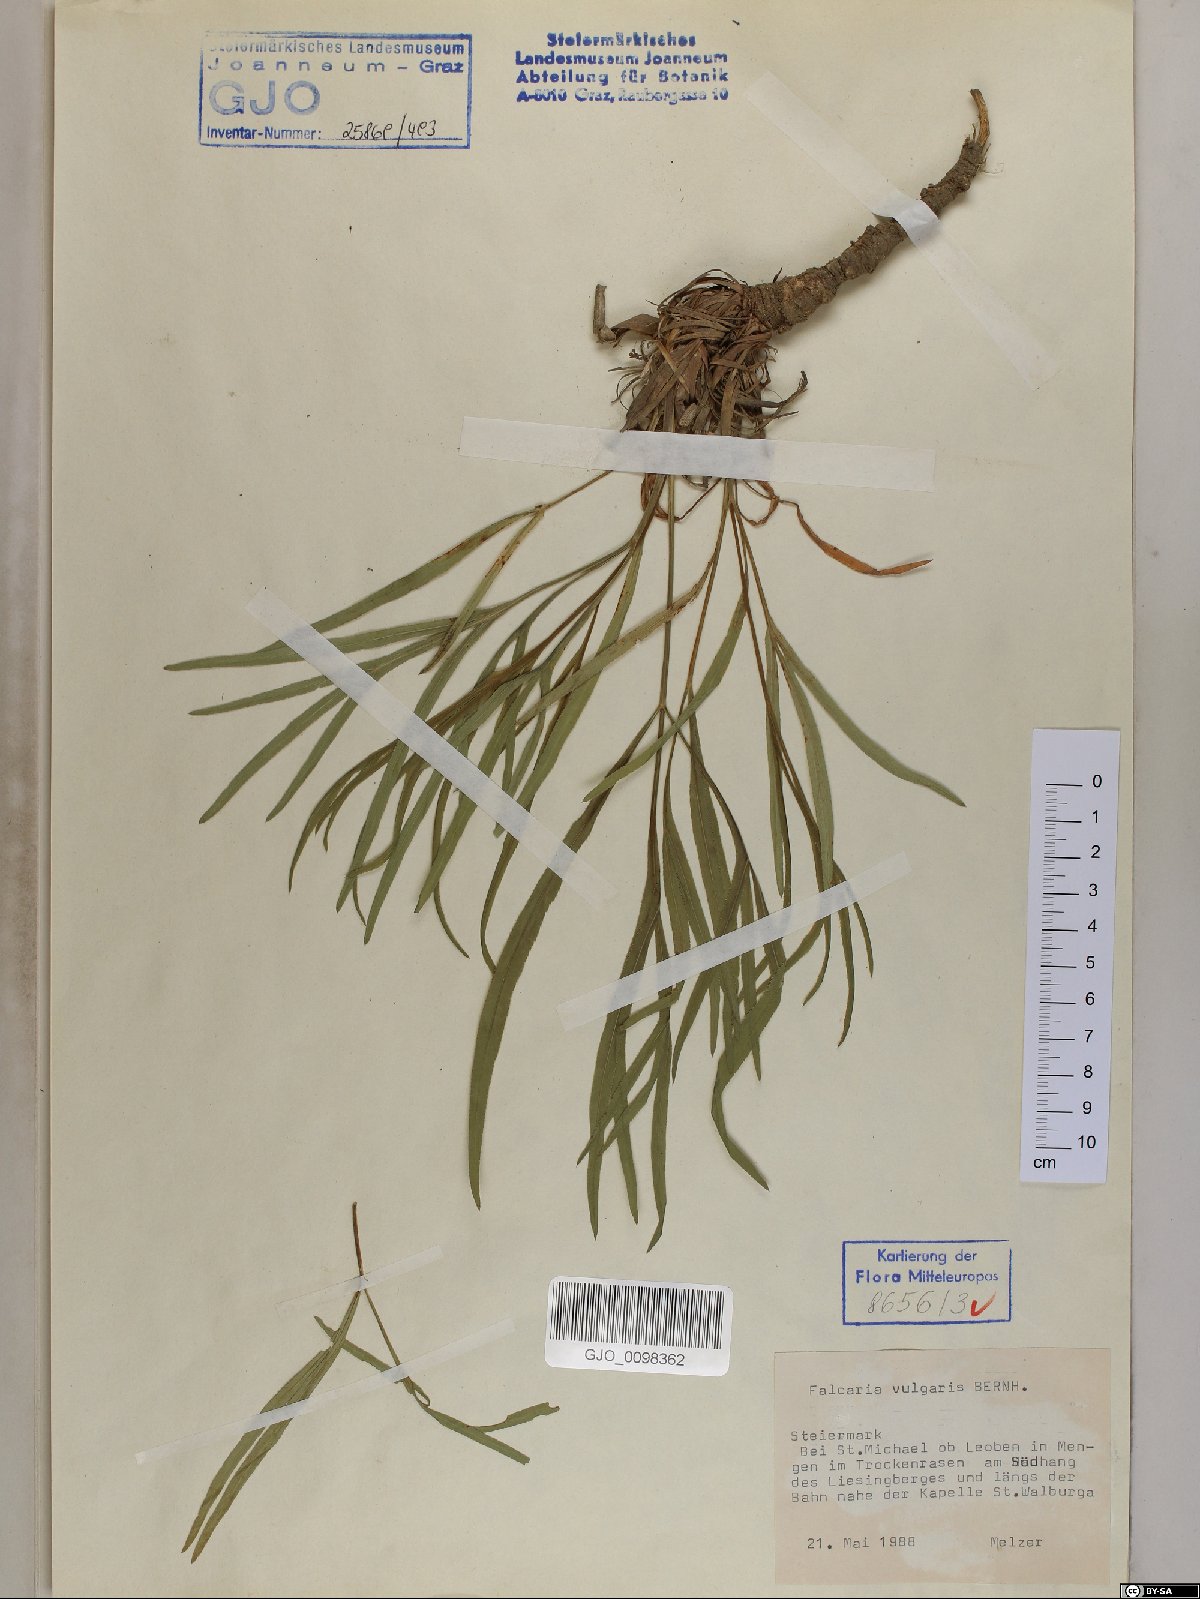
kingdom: Plantae
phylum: Tracheophyta
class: Magnoliopsida
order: Apiales
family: Apiaceae
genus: Falcaria
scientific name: Falcaria vulgaris
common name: Longleaf
